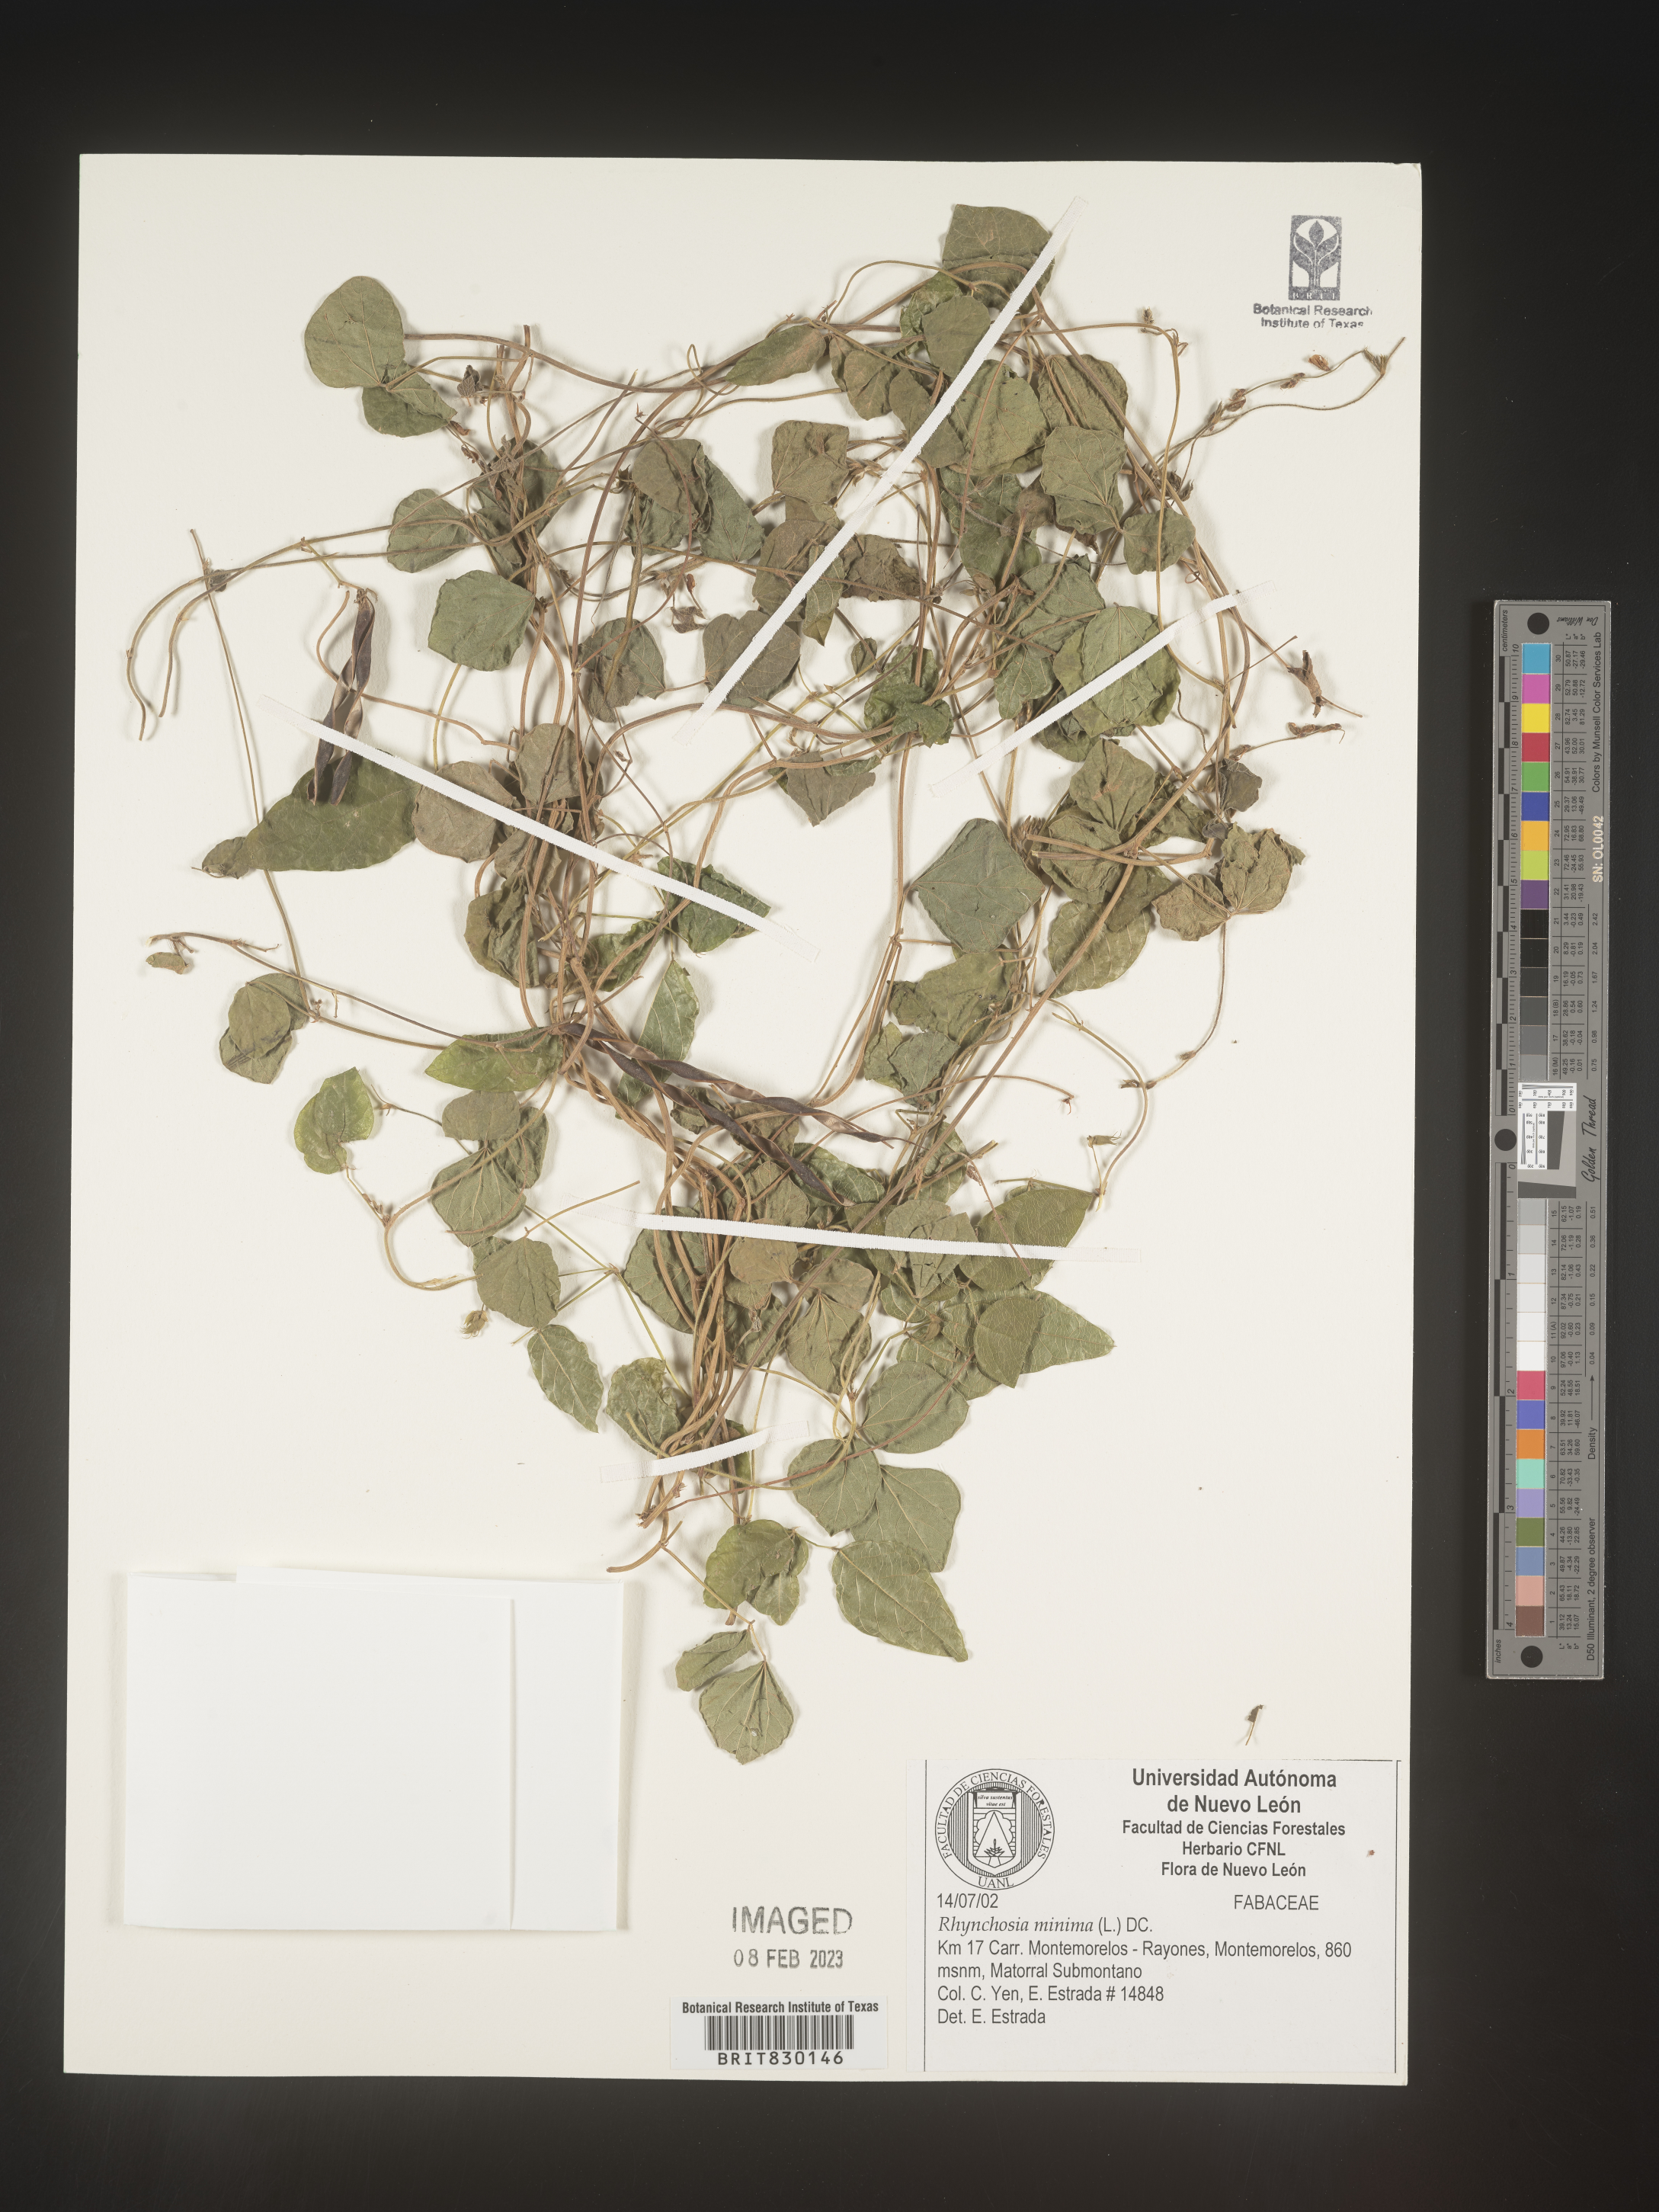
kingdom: Plantae
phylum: Tracheophyta
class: Magnoliopsida
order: Fabales
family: Fabaceae
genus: Rhynchosia
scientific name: Rhynchosia
